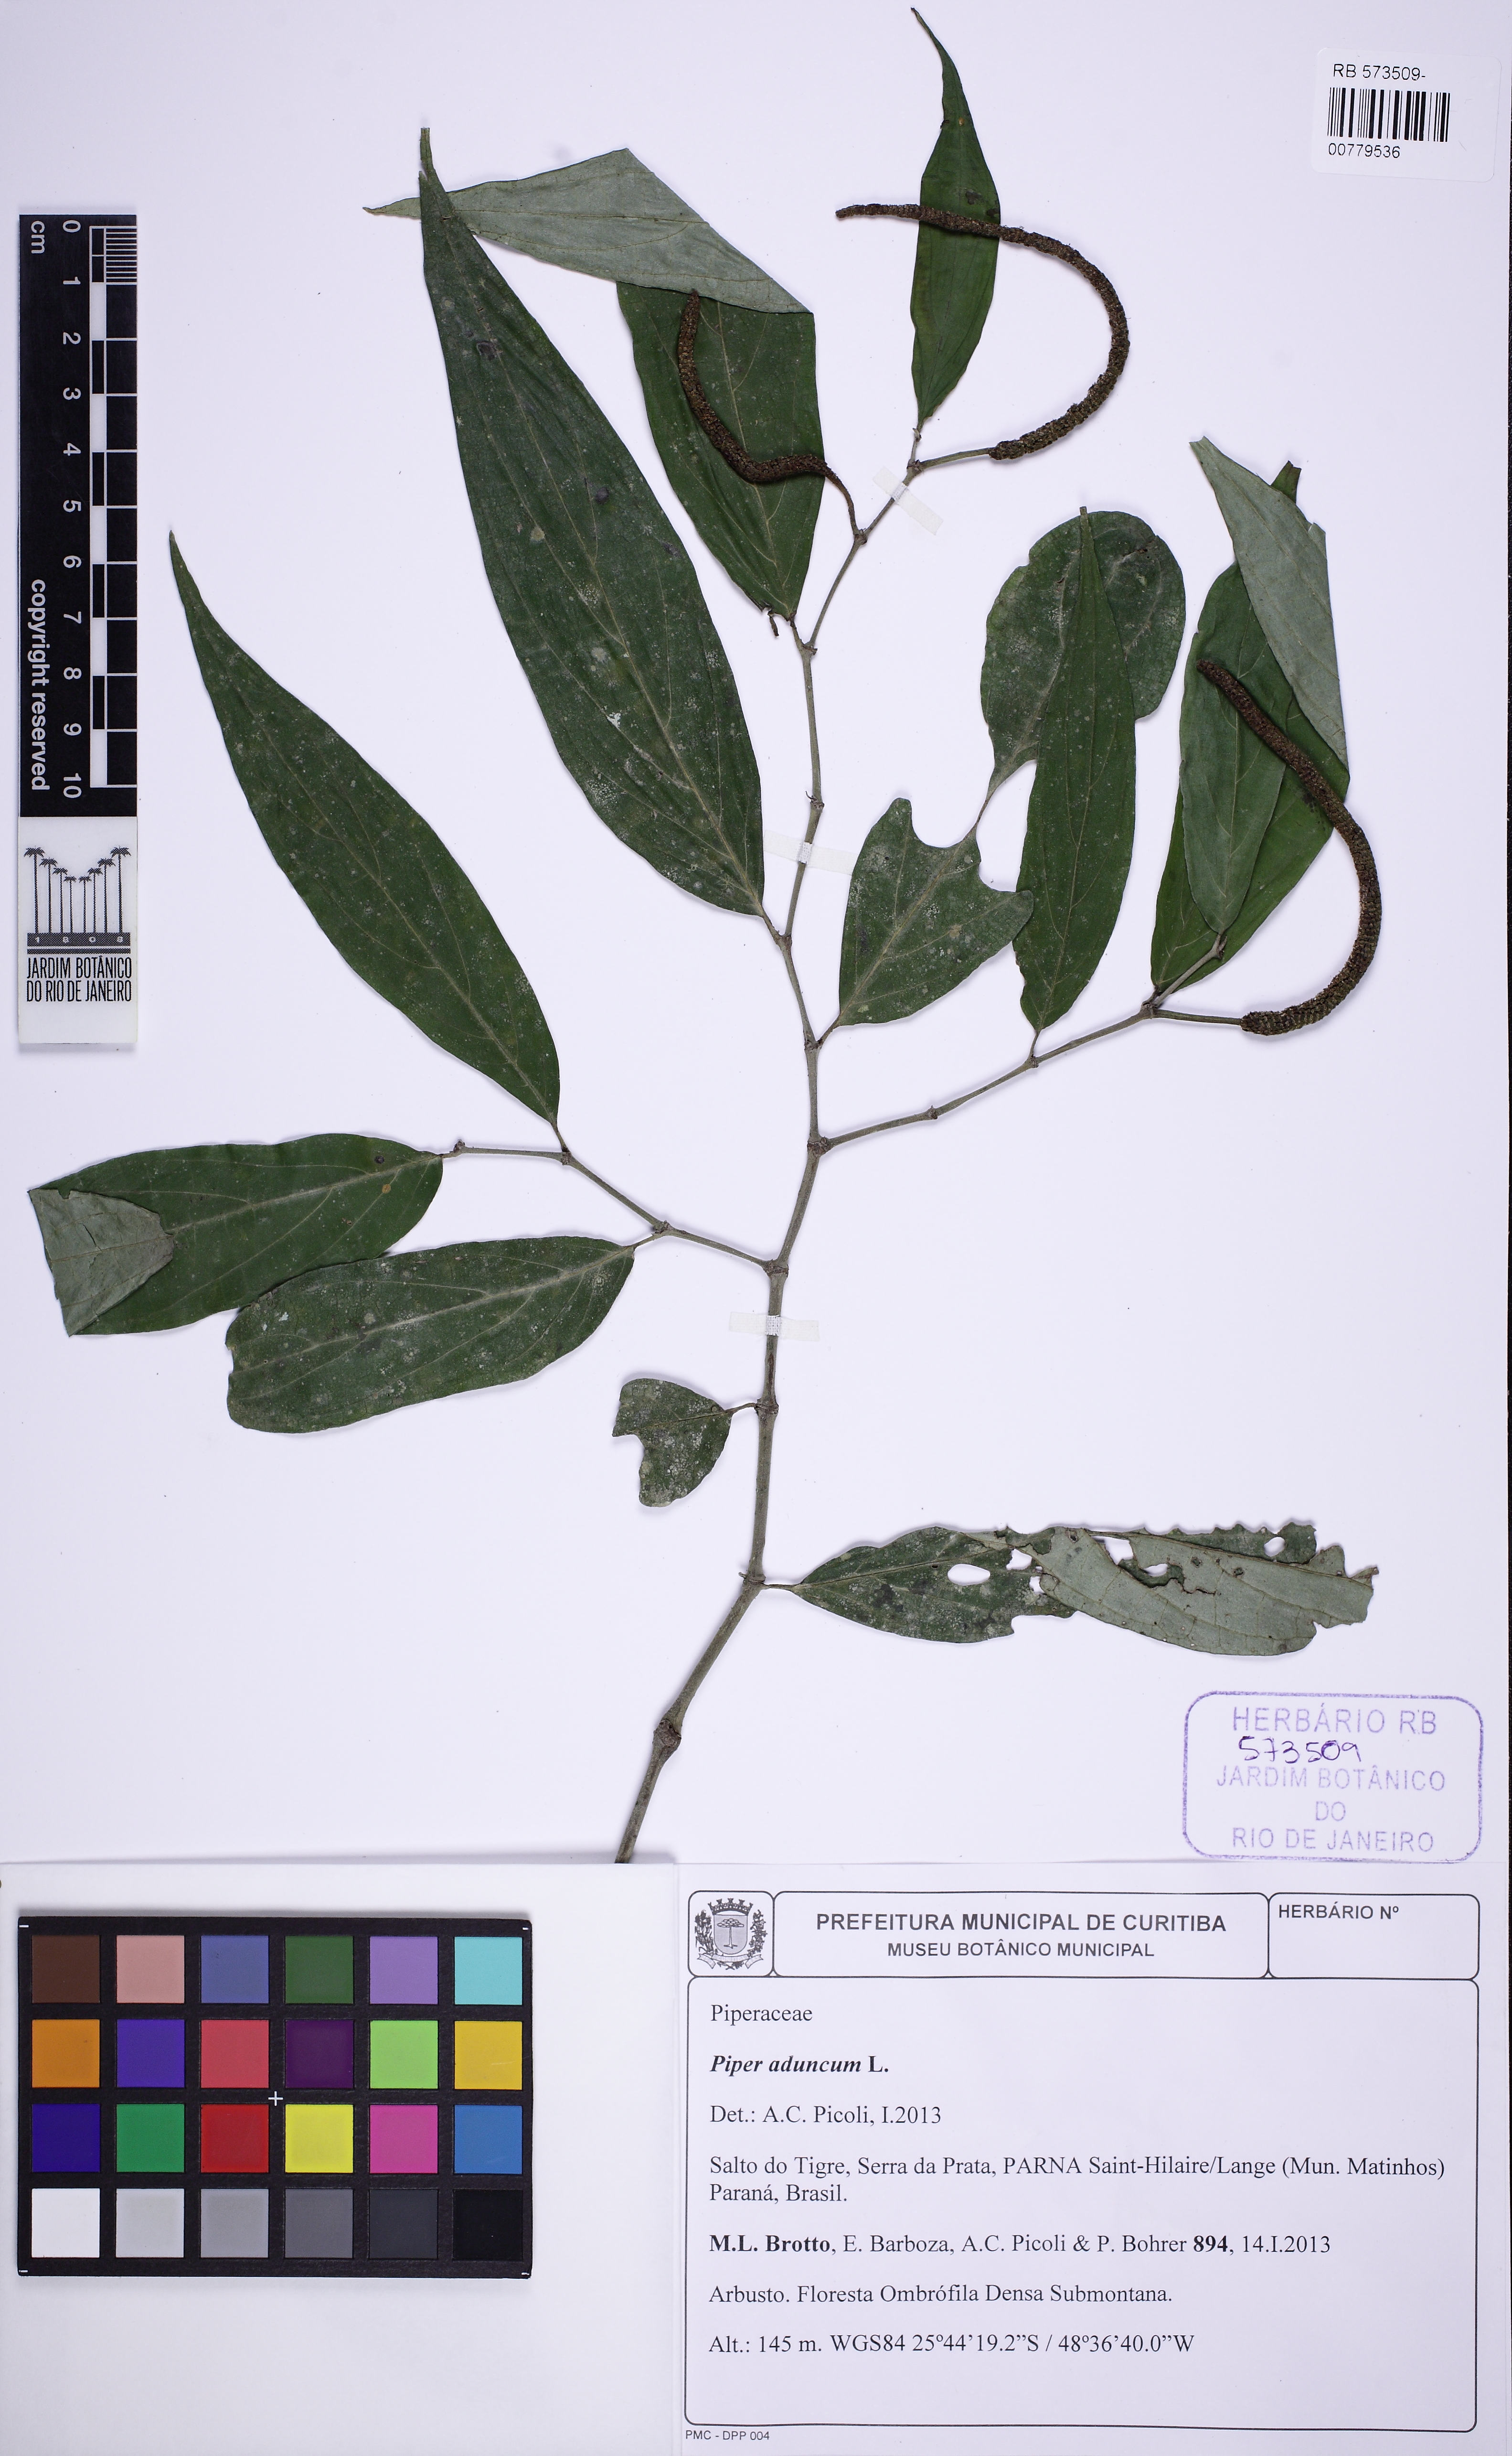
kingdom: Plantae
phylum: Tracheophyta
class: Magnoliopsida
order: Piperales
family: Piperaceae
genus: Piper
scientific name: Piper aduncum
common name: Spiked pepper
